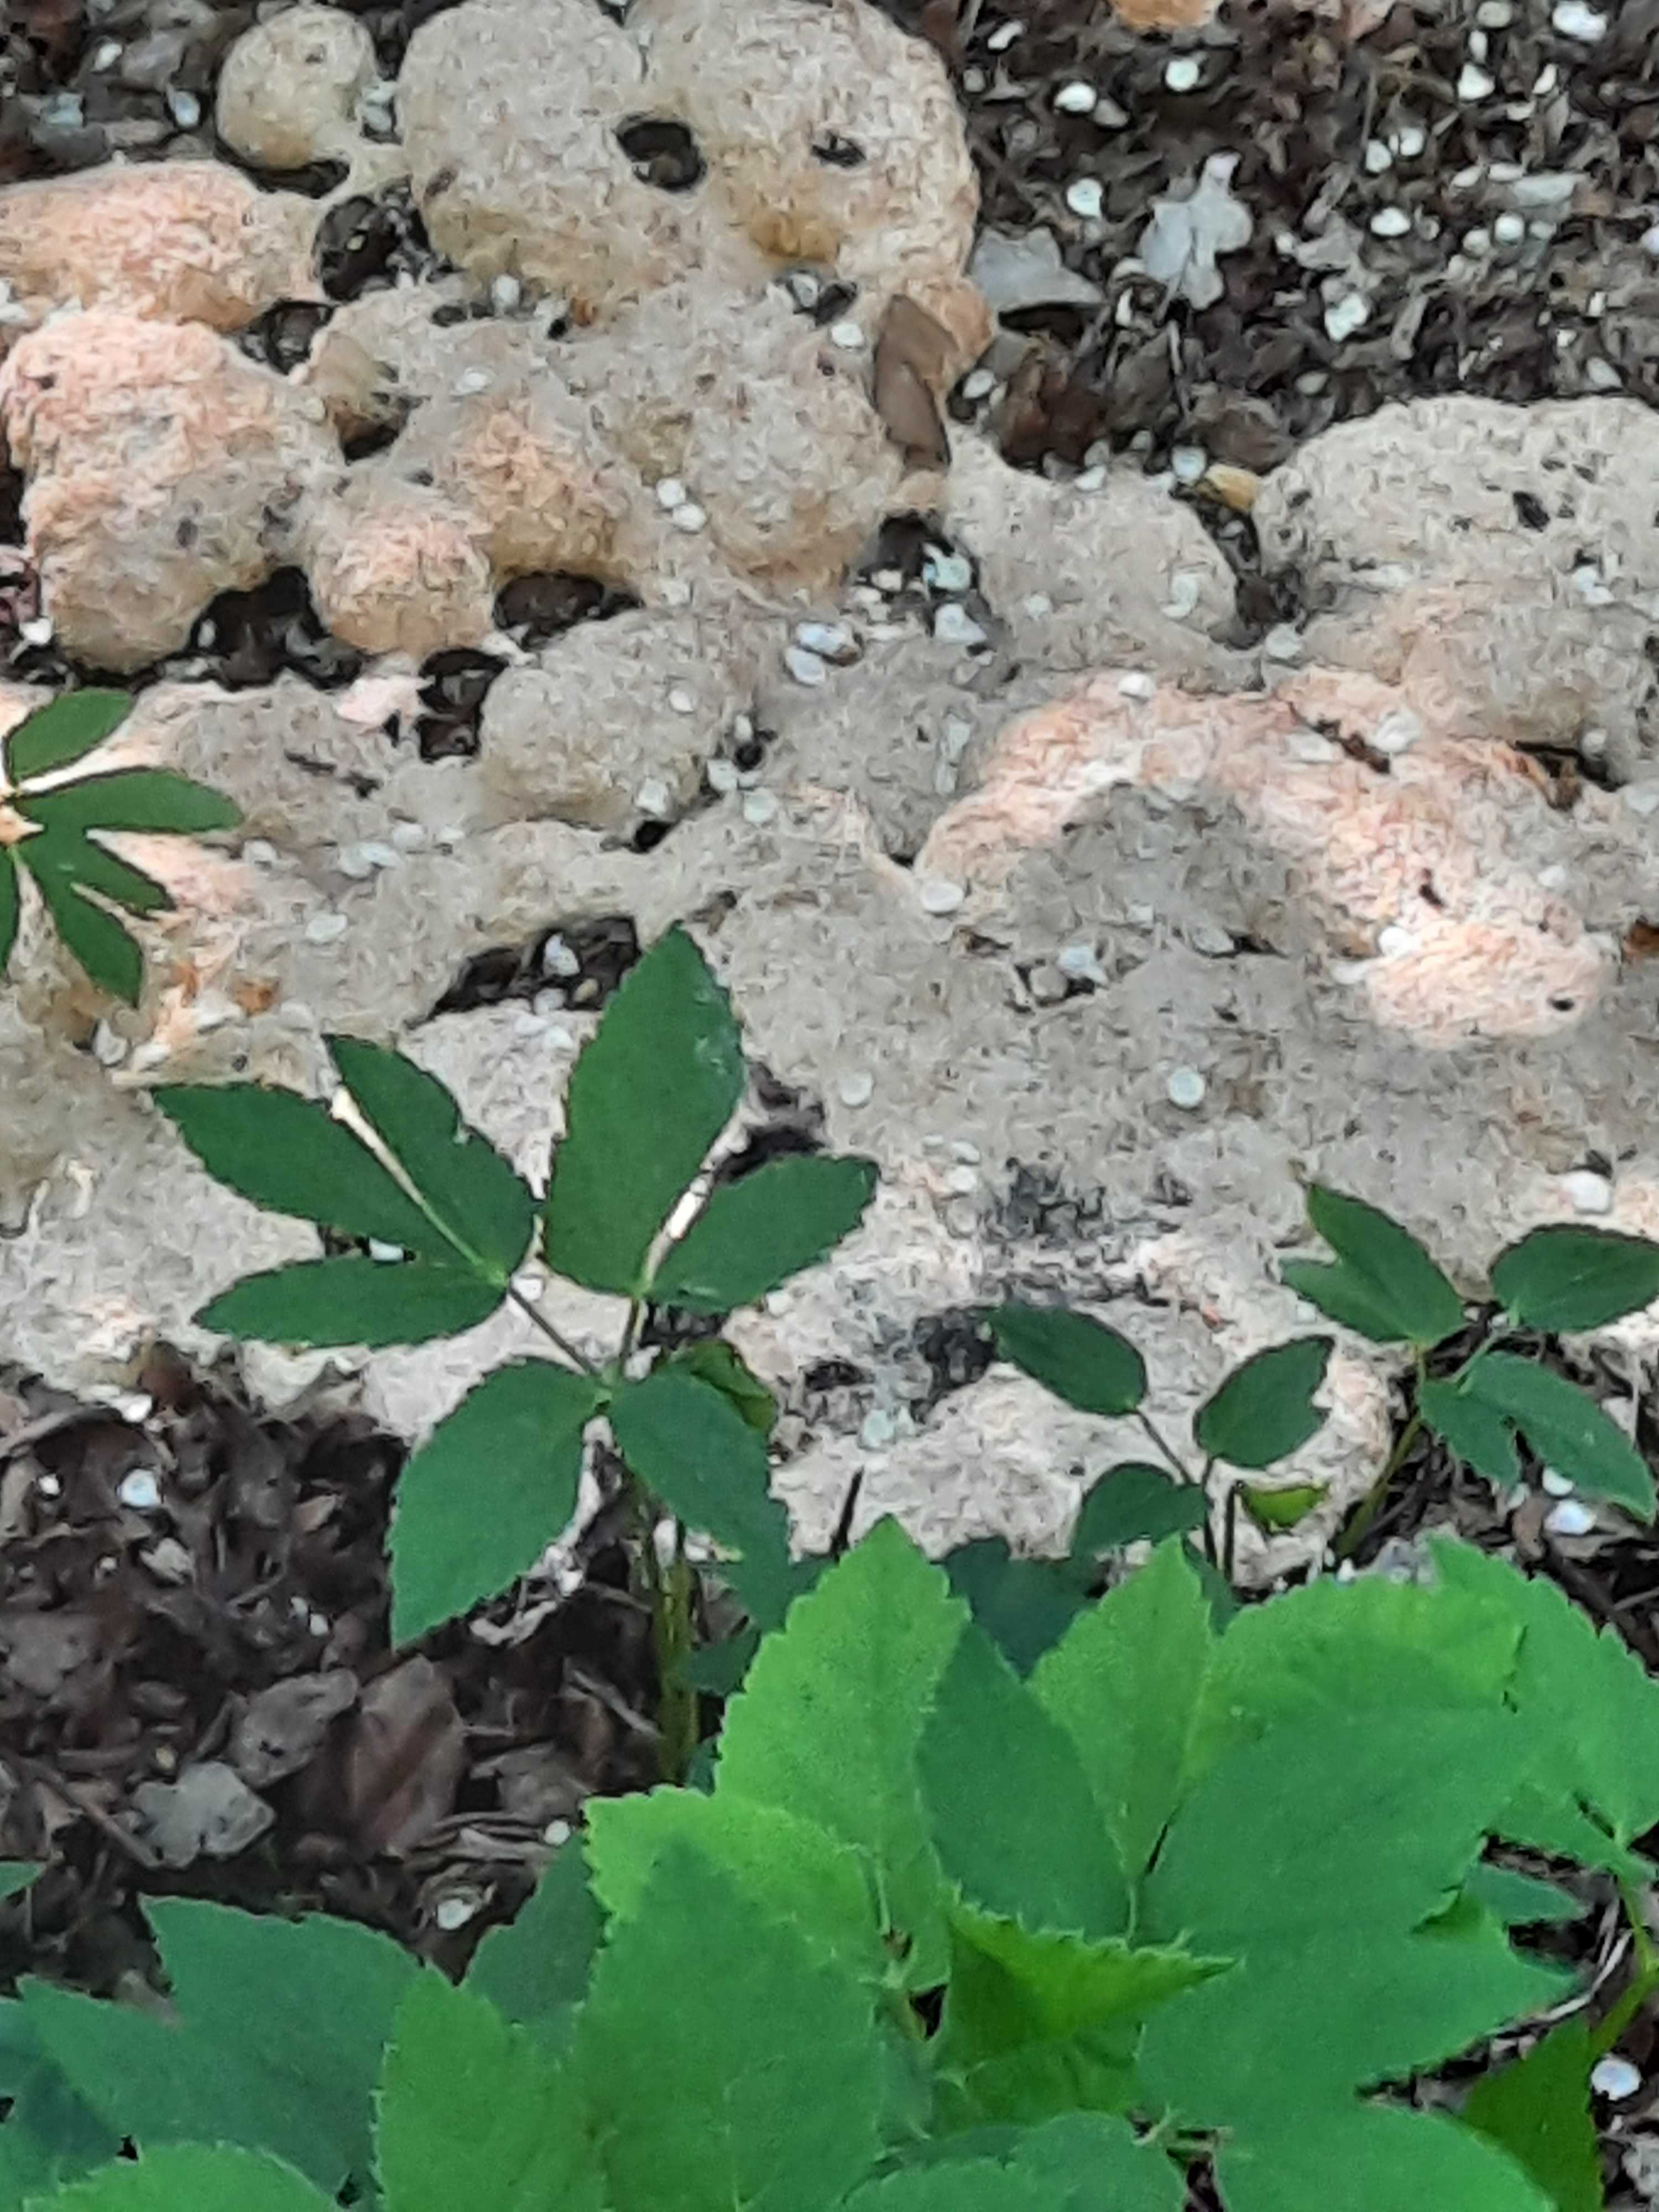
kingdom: Protozoa
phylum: Mycetozoa
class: Myxomycetes
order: Physarales
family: Physaraceae
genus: Fuligo
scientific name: Fuligo
